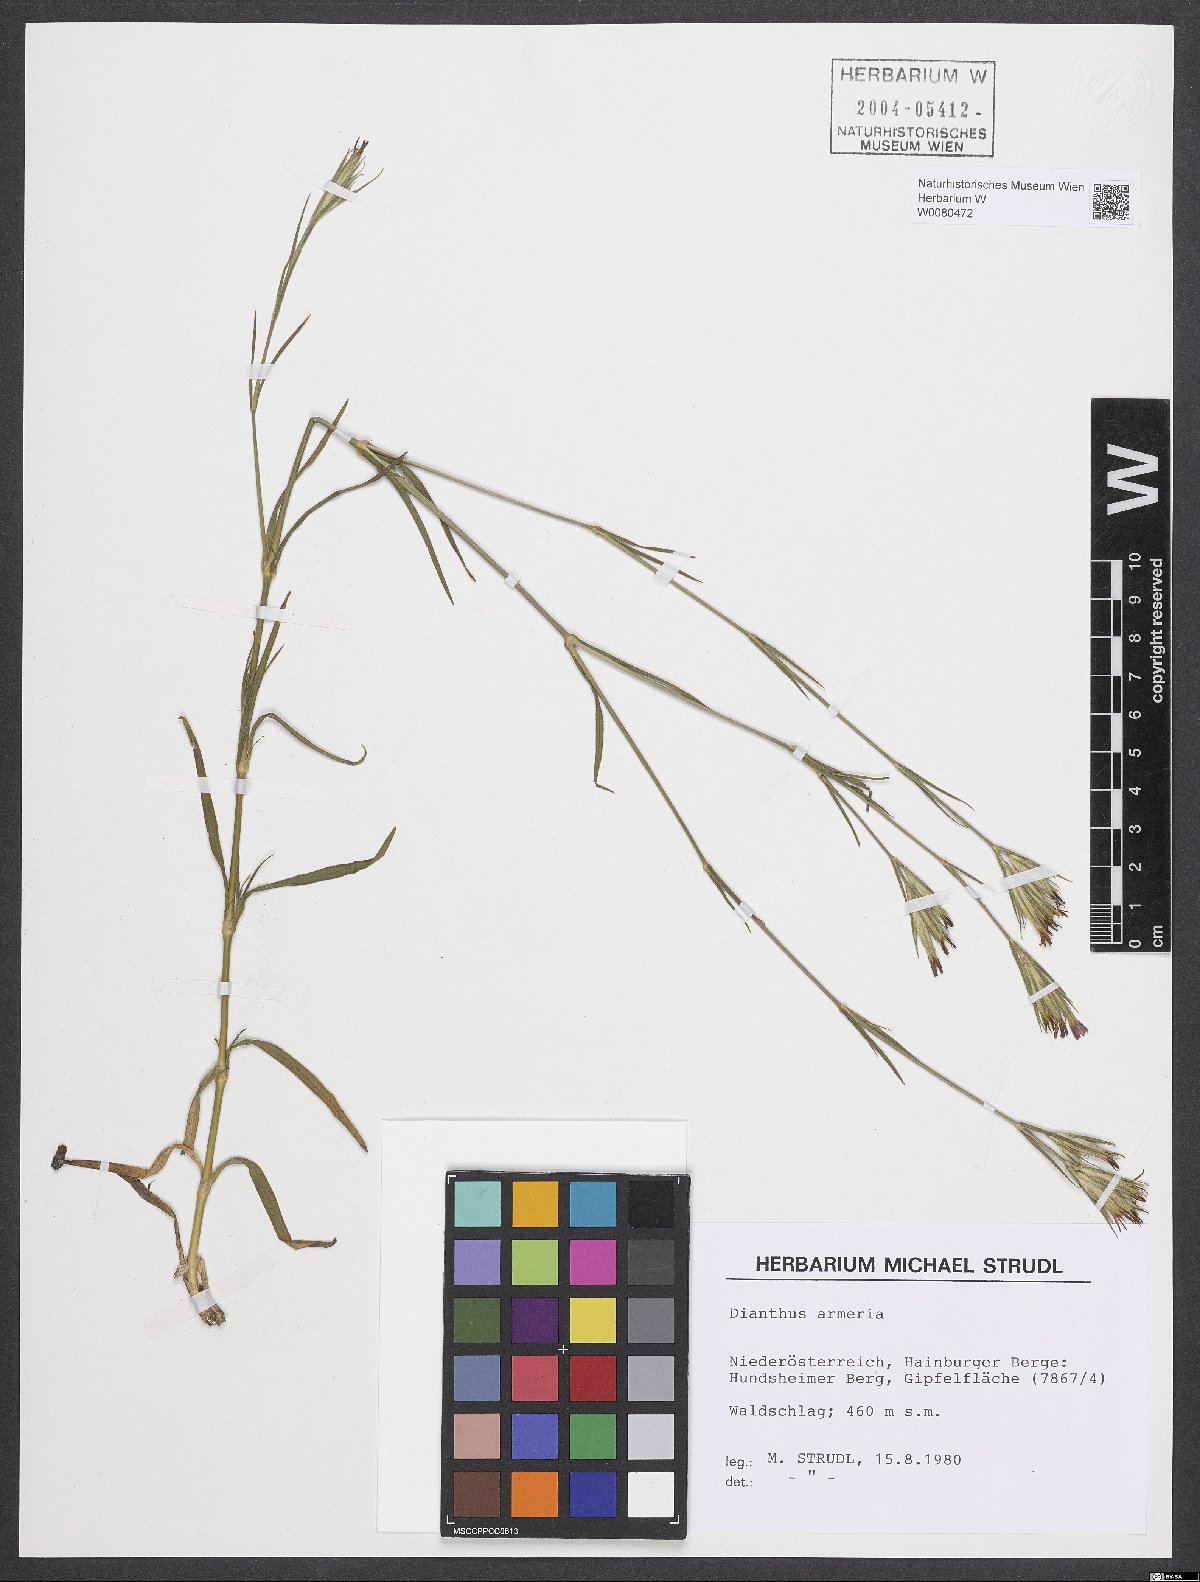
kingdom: Plantae
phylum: Tracheophyta
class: Magnoliopsida
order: Caryophyllales
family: Caryophyllaceae
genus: Dianthus
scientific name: Dianthus armeria
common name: Deptford pink
